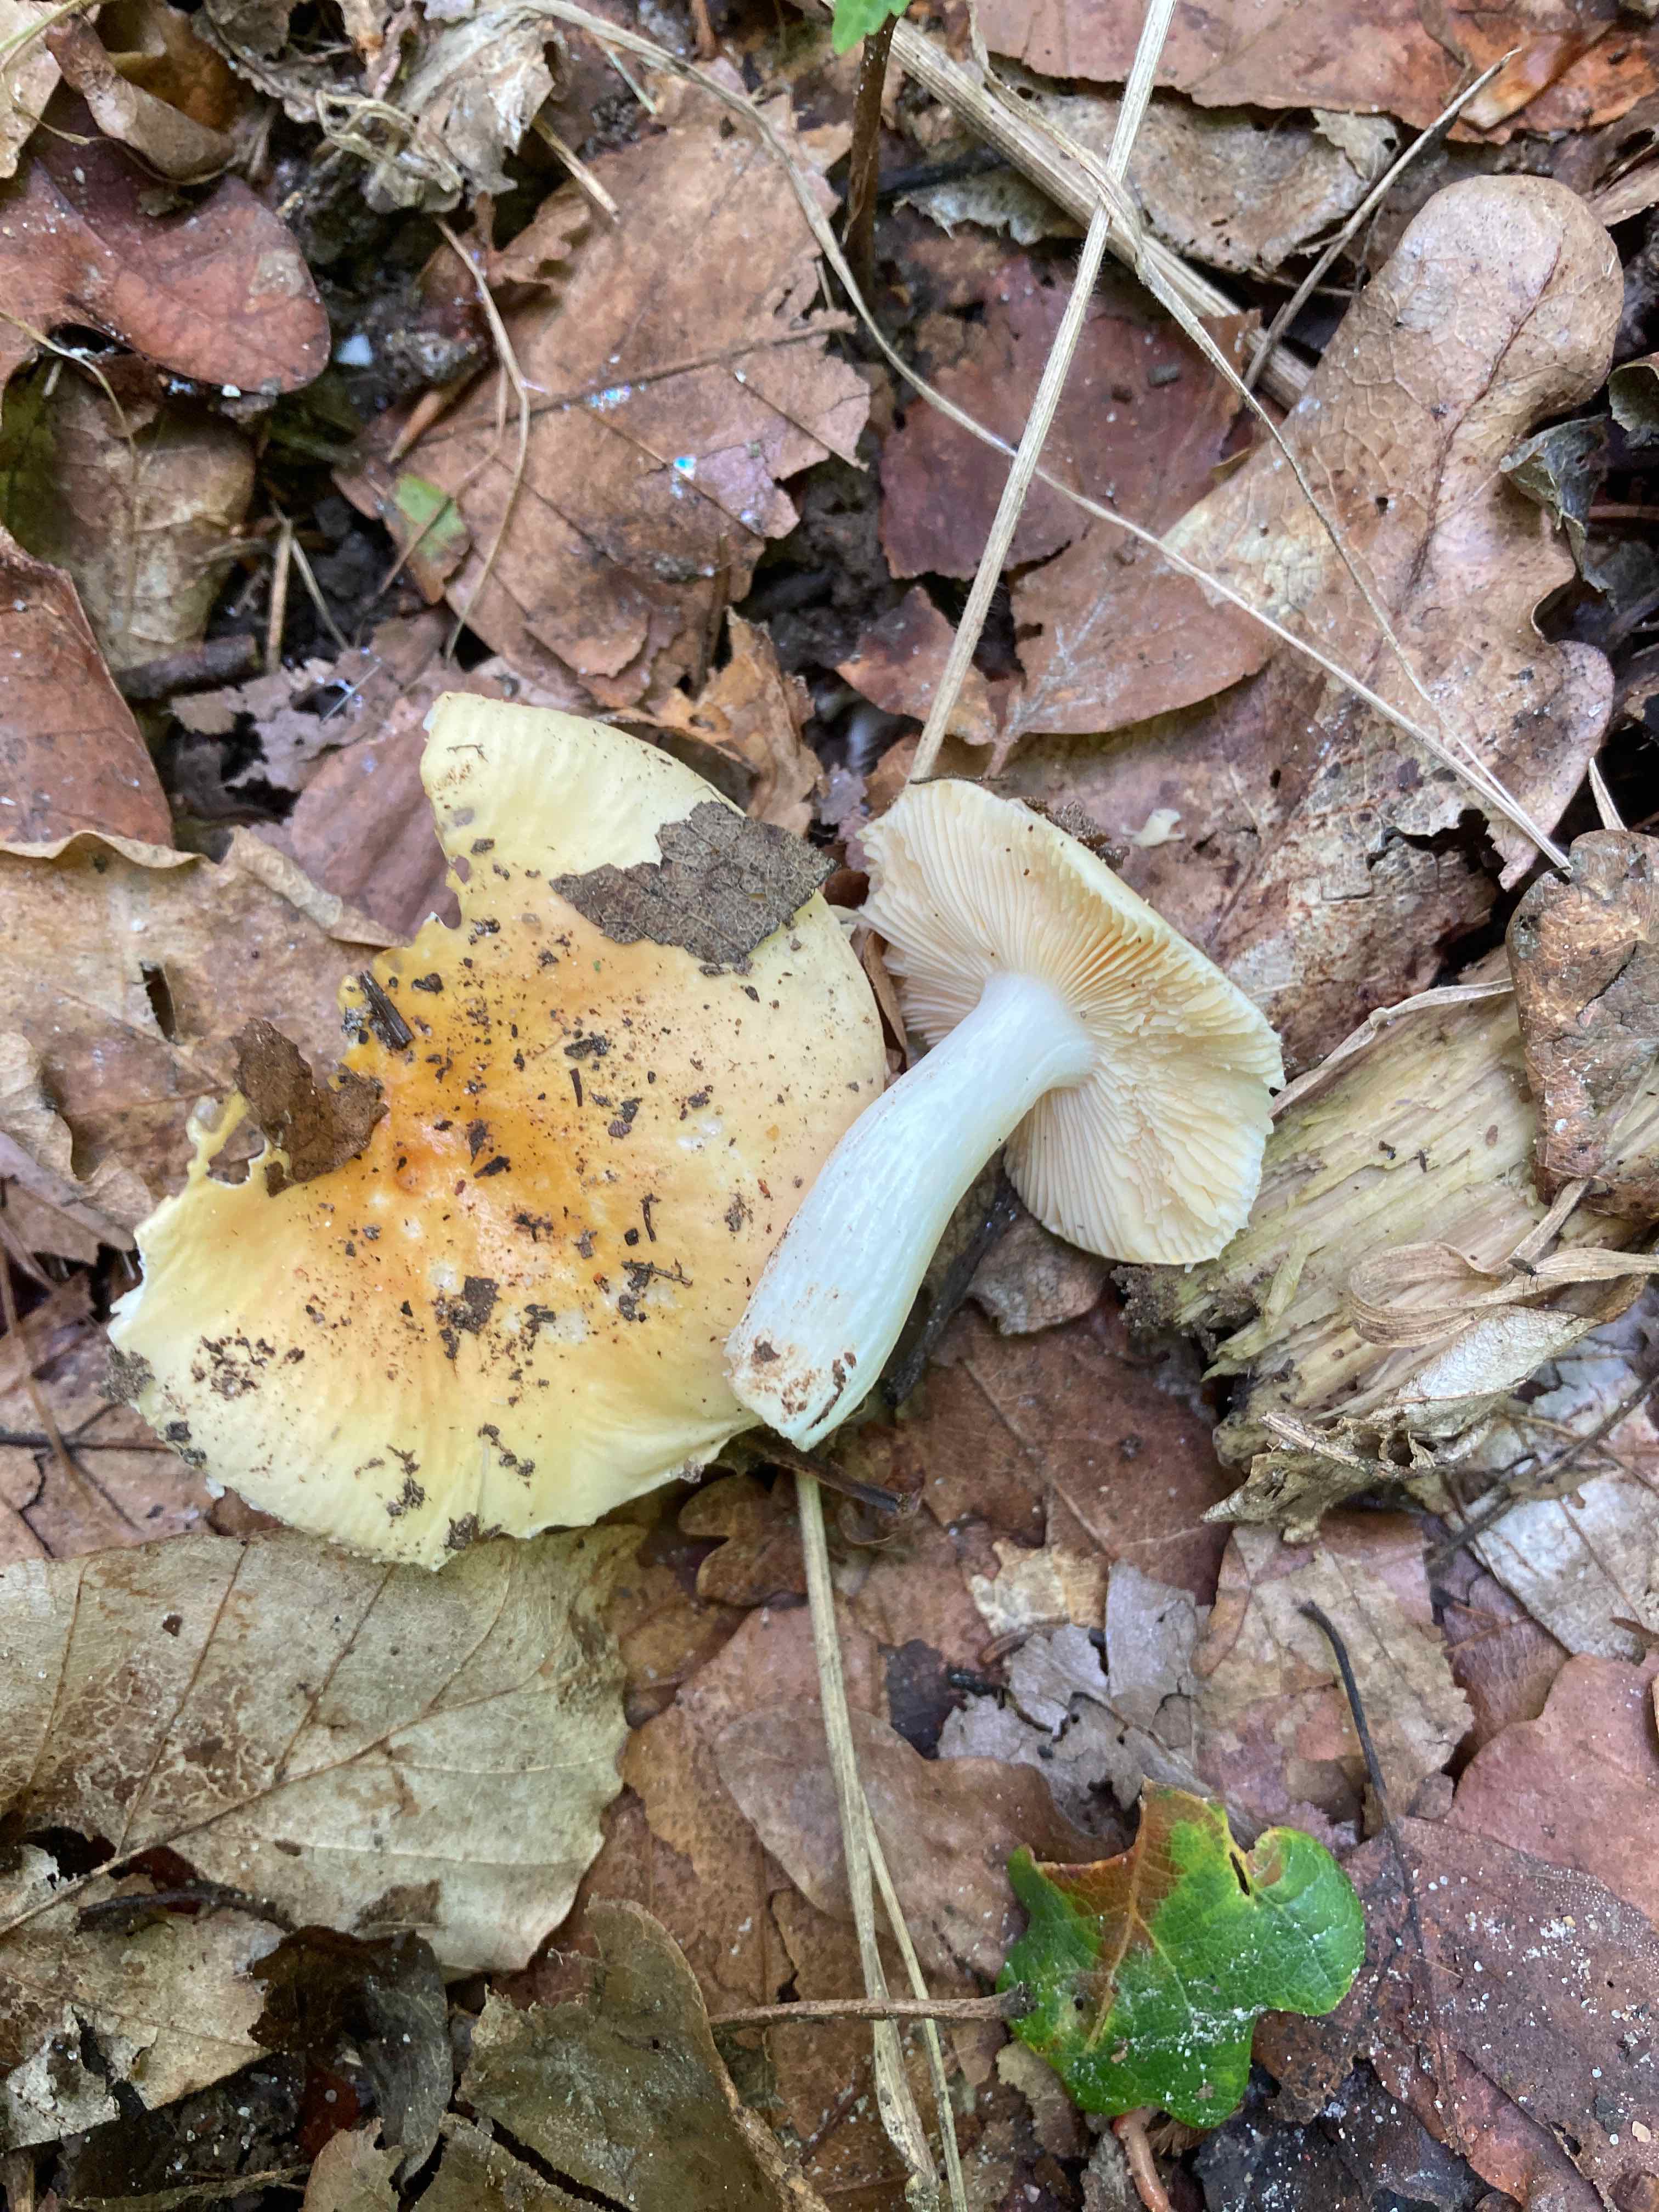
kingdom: Fungi
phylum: Basidiomycota
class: Agaricomycetes
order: Russulales
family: Russulaceae
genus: Russula
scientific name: Russula risigallina
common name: abrikos-skørhat
